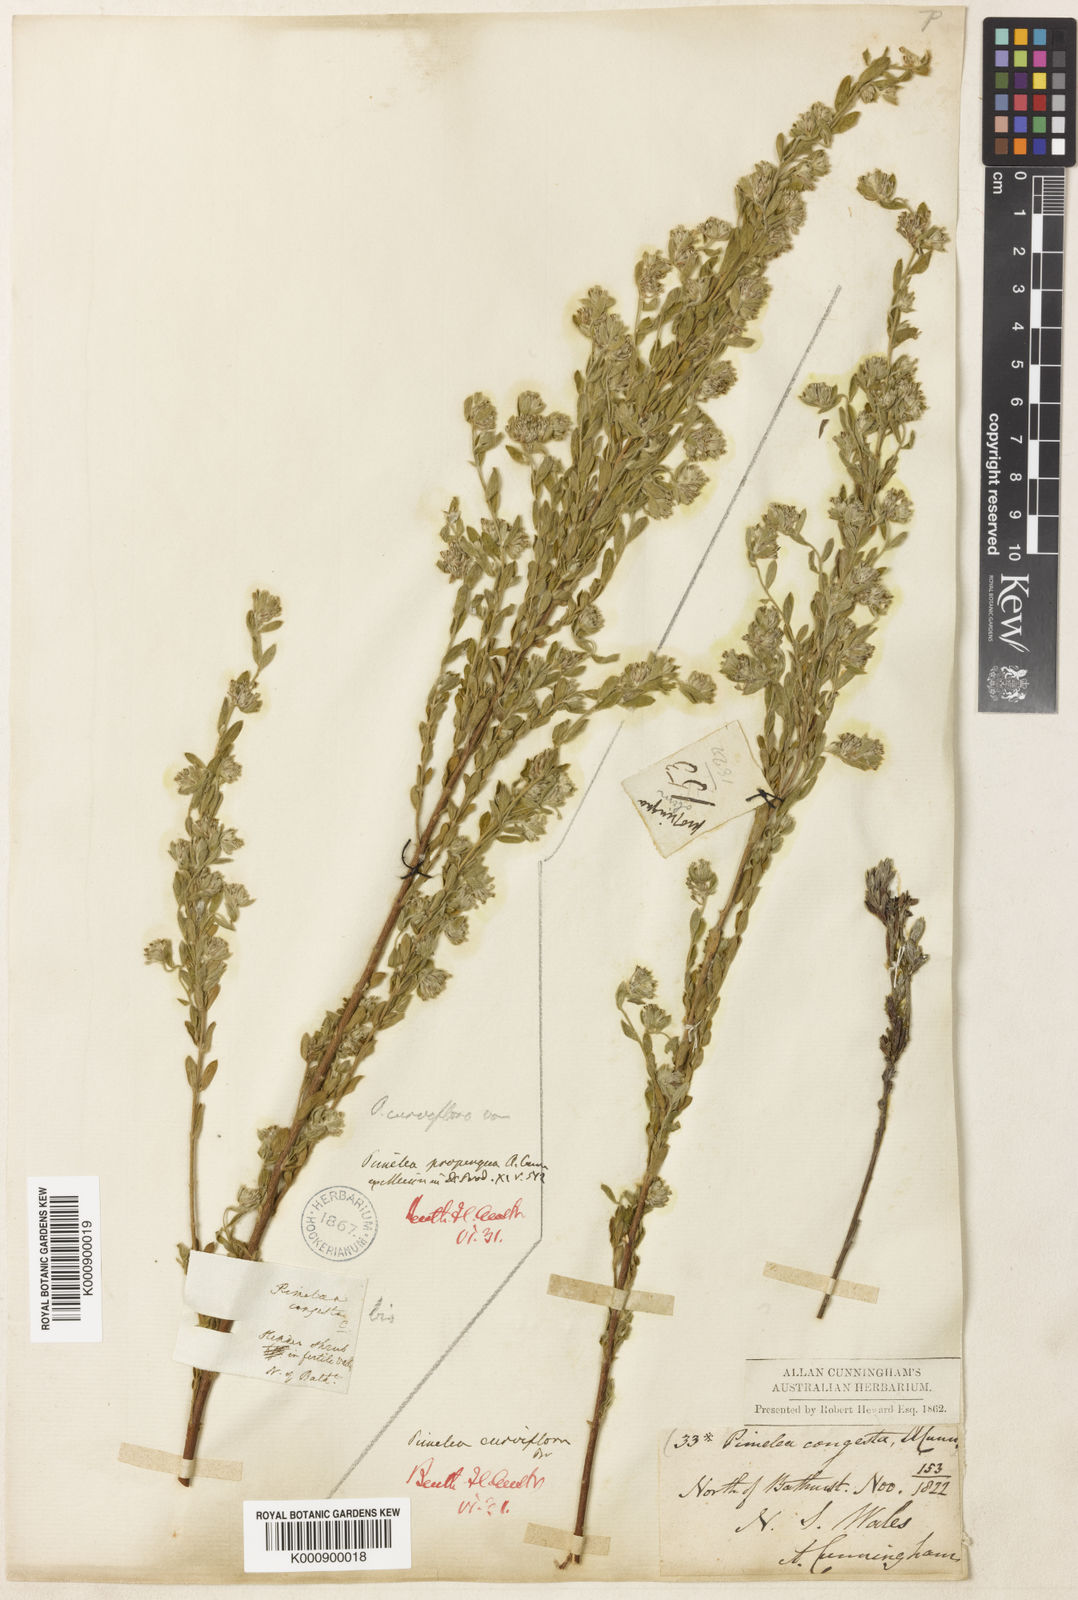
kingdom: Plantae
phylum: Tracheophyta
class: Magnoliopsida
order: Malvales
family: Thymelaeaceae
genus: Pimelea
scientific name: Pimelea curviflora
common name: Curved riceflower
